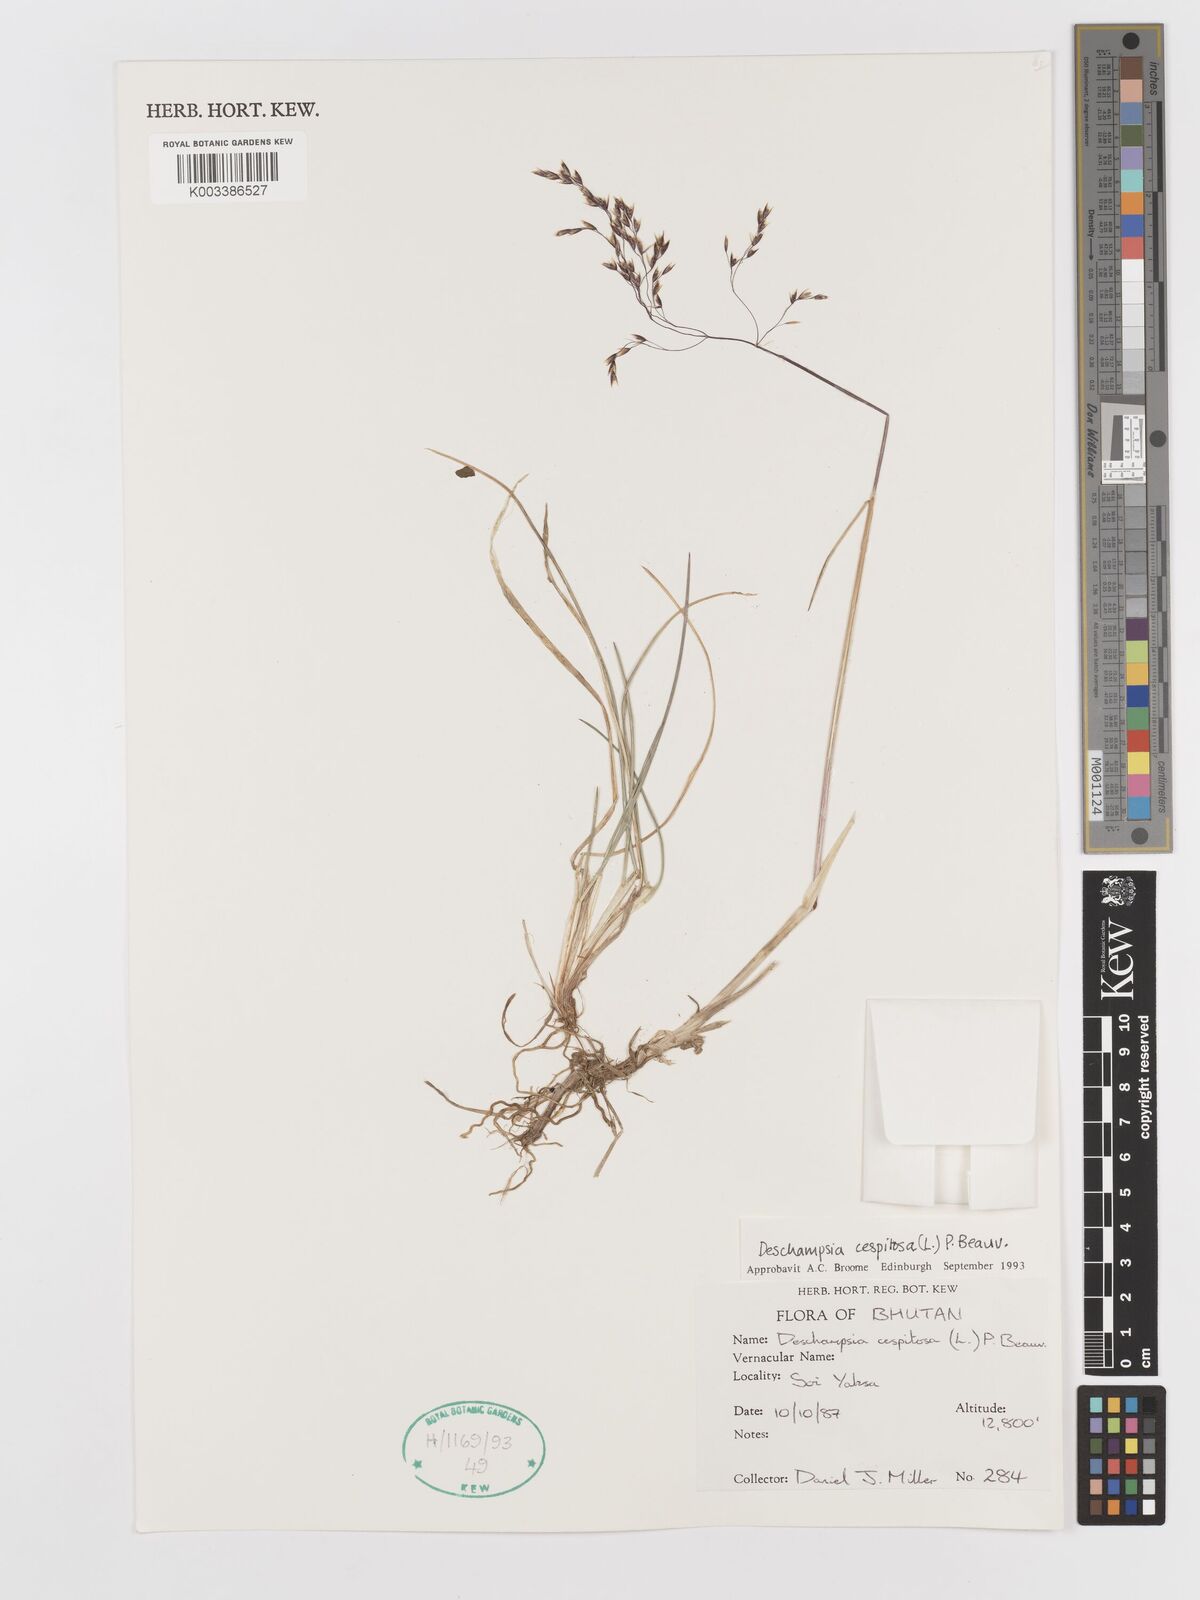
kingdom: Plantae
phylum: Tracheophyta
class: Liliopsida
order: Poales
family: Poaceae
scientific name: Poaceae
